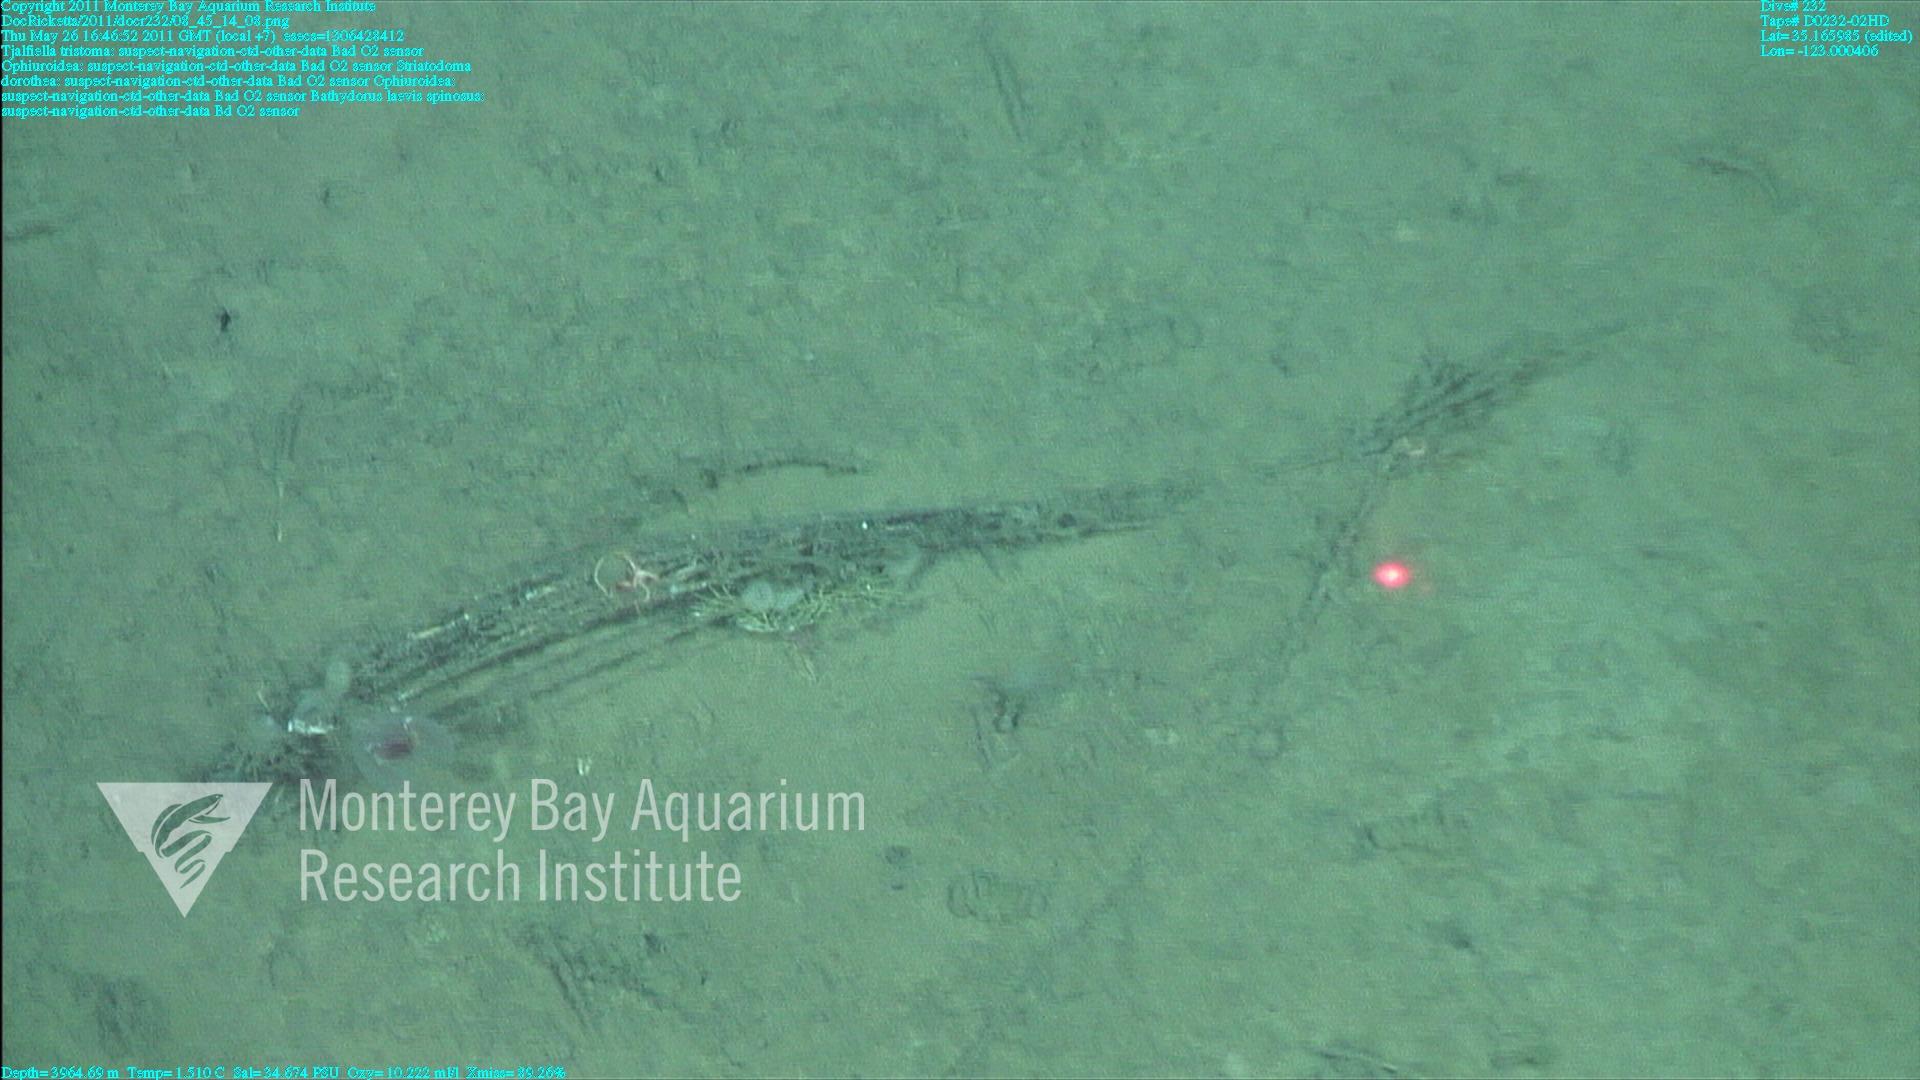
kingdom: Animalia
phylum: Porifera
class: Hexactinellida
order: Lyssacinosida
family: Rossellidae
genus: Bathydorus
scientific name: Bathydorus spinosus
